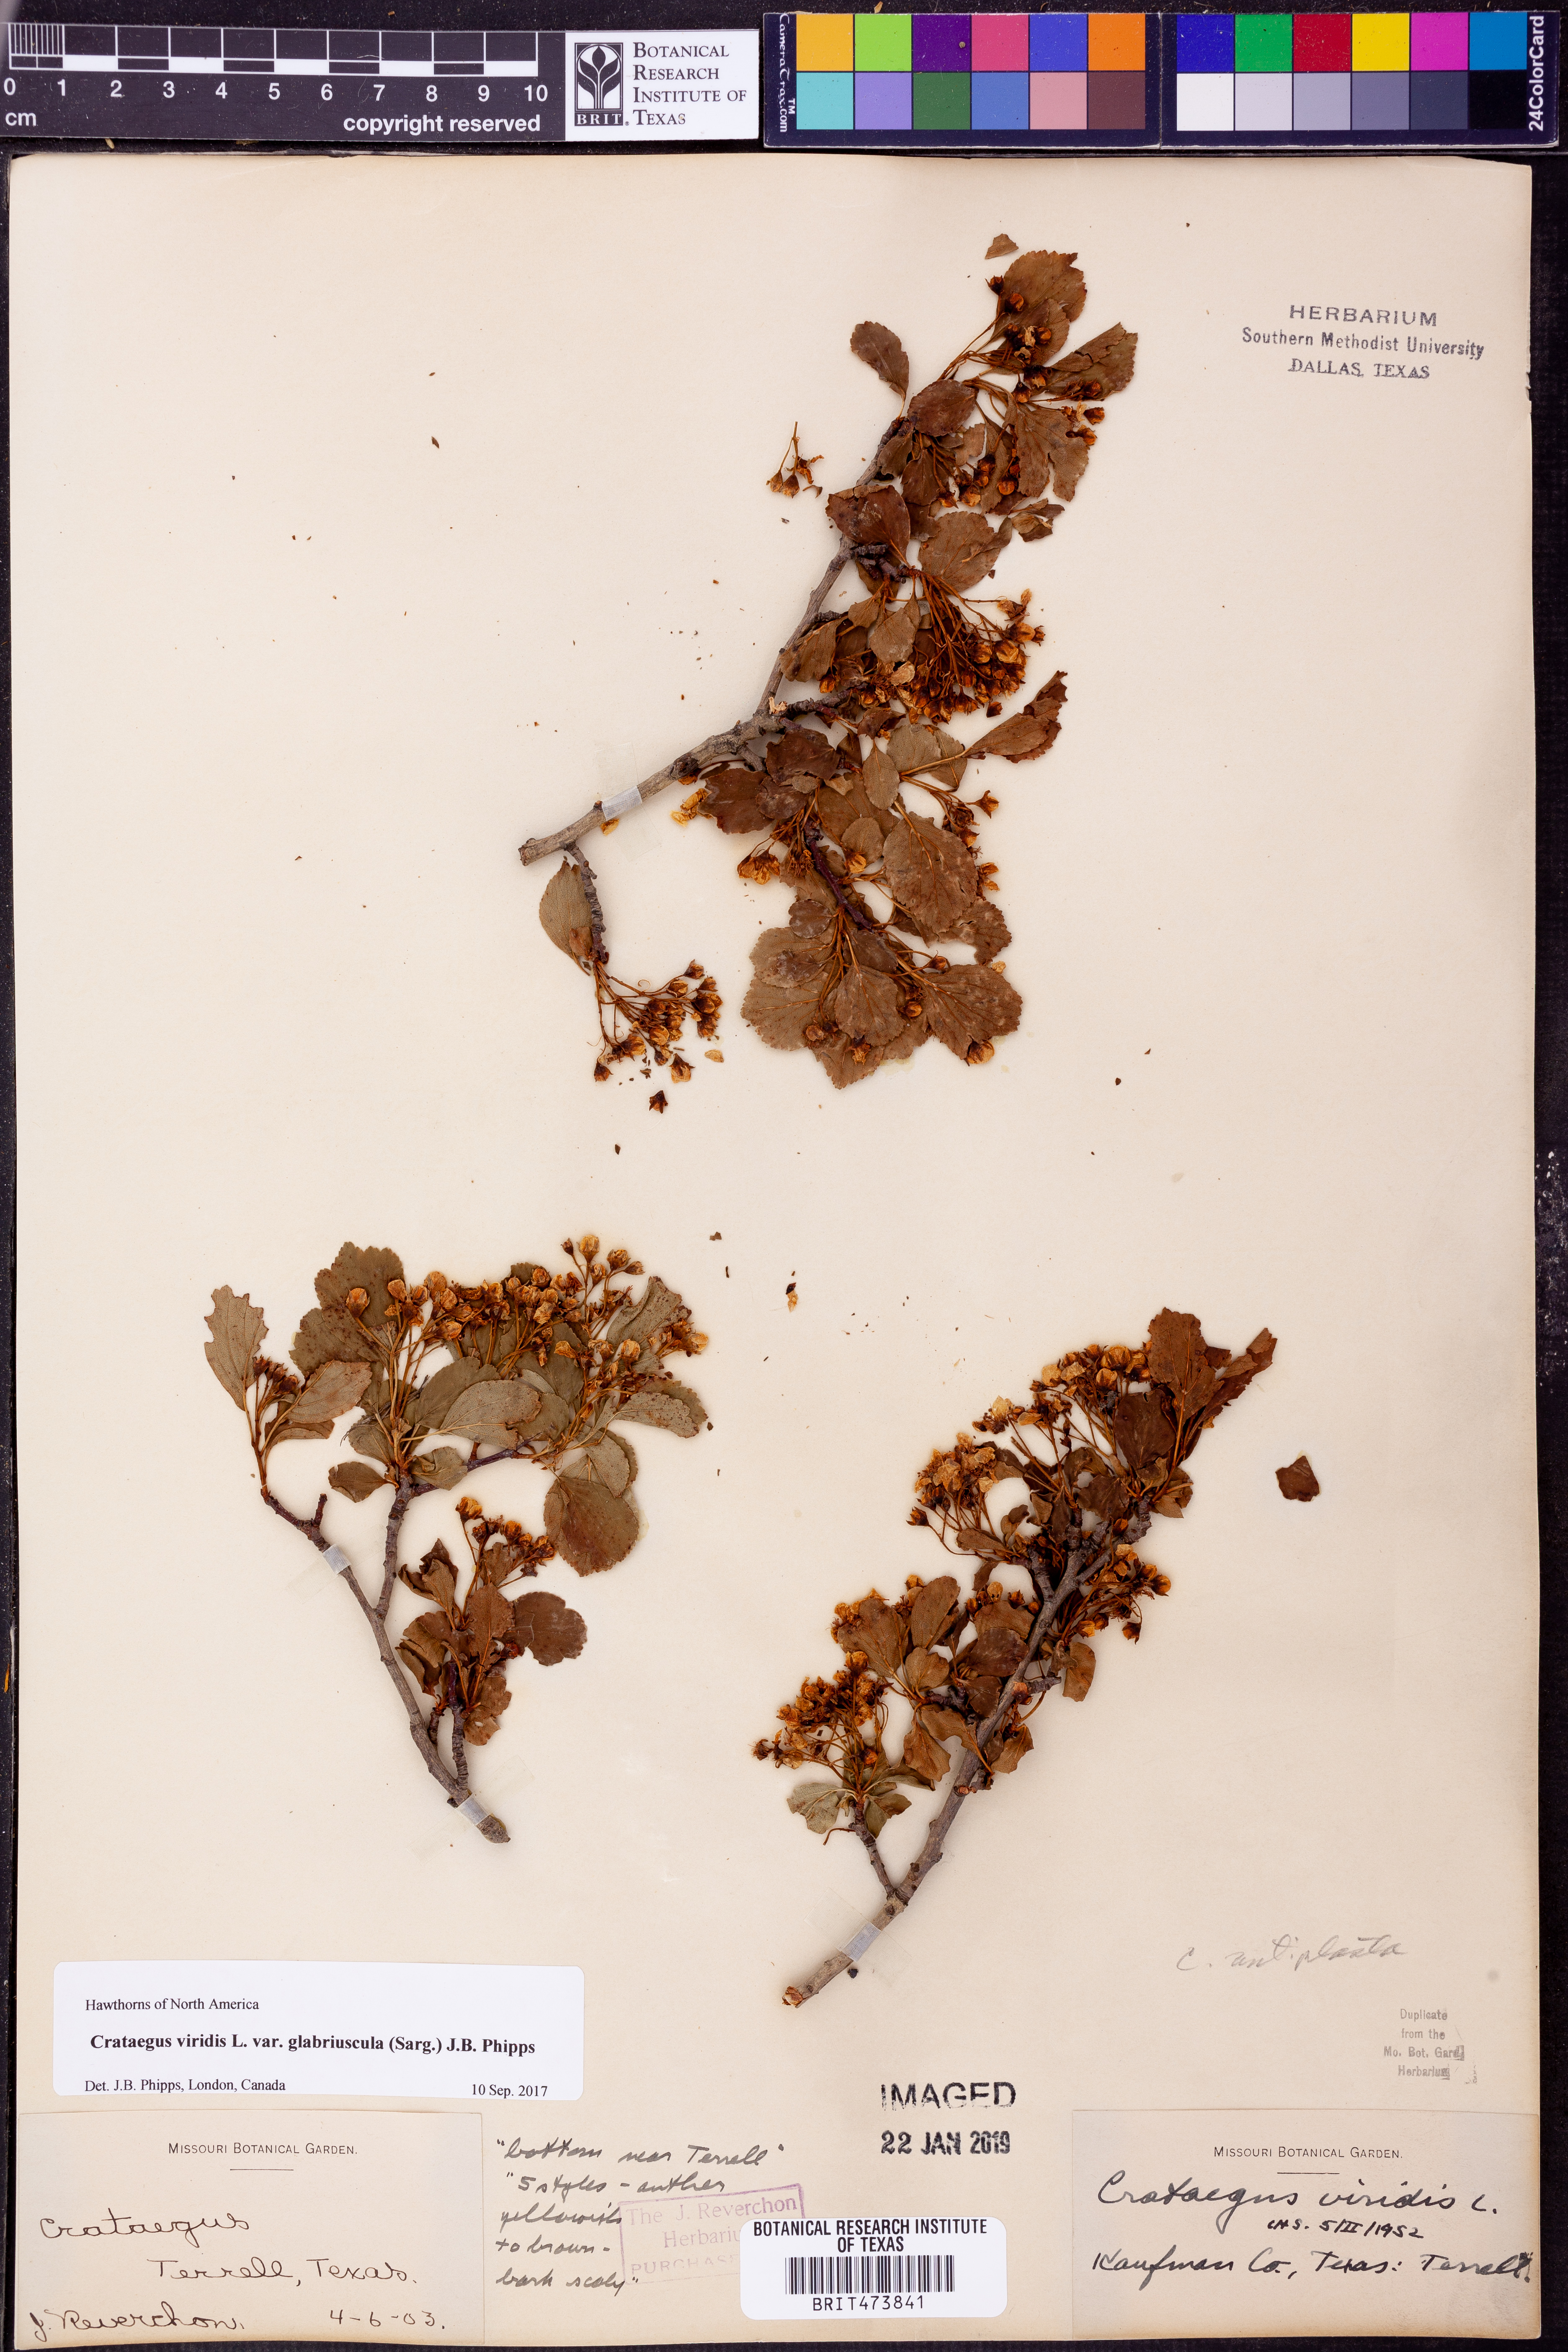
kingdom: Plantae
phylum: Tracheophyta
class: Magnoliopsida
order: Rosales
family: Rosaceae
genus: Crataegus
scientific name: Crataegus viridis
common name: Southernthorn
